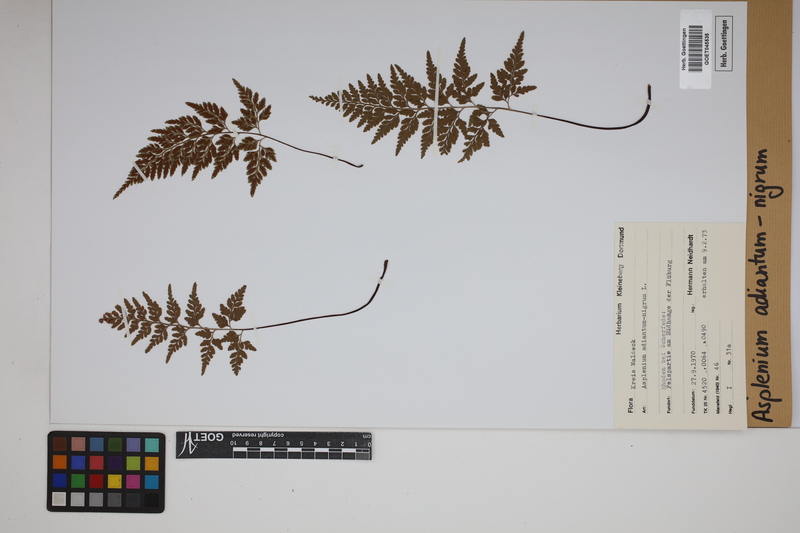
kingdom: Plantae
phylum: Tracheophyta
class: Polypodiopsida
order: Polypodiales
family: Aspleniaceae
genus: Asplenium
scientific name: Asplenium adiantum-nigrum
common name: Black spleenwort
